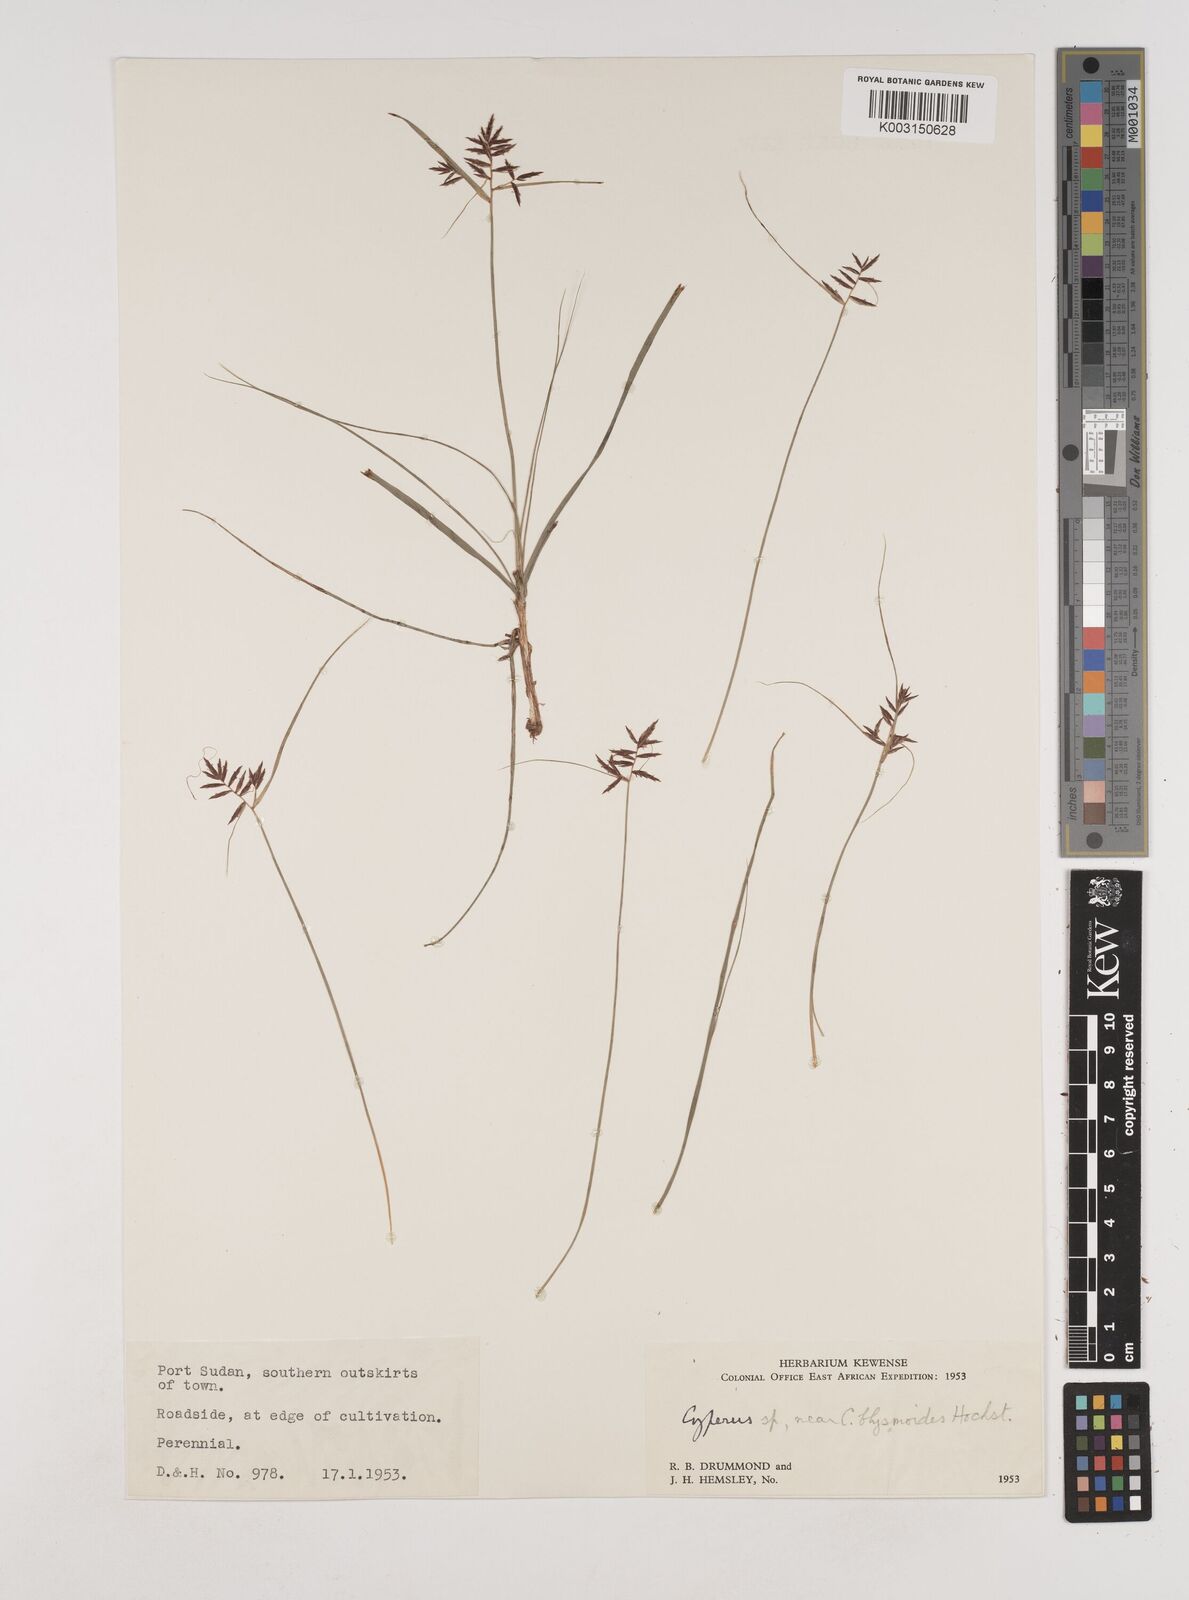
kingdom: Plantae
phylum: Tracheophyta
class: Liliopsida
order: Poales
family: Cyperaceae
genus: Cyperus
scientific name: Cyperus bulbosus
